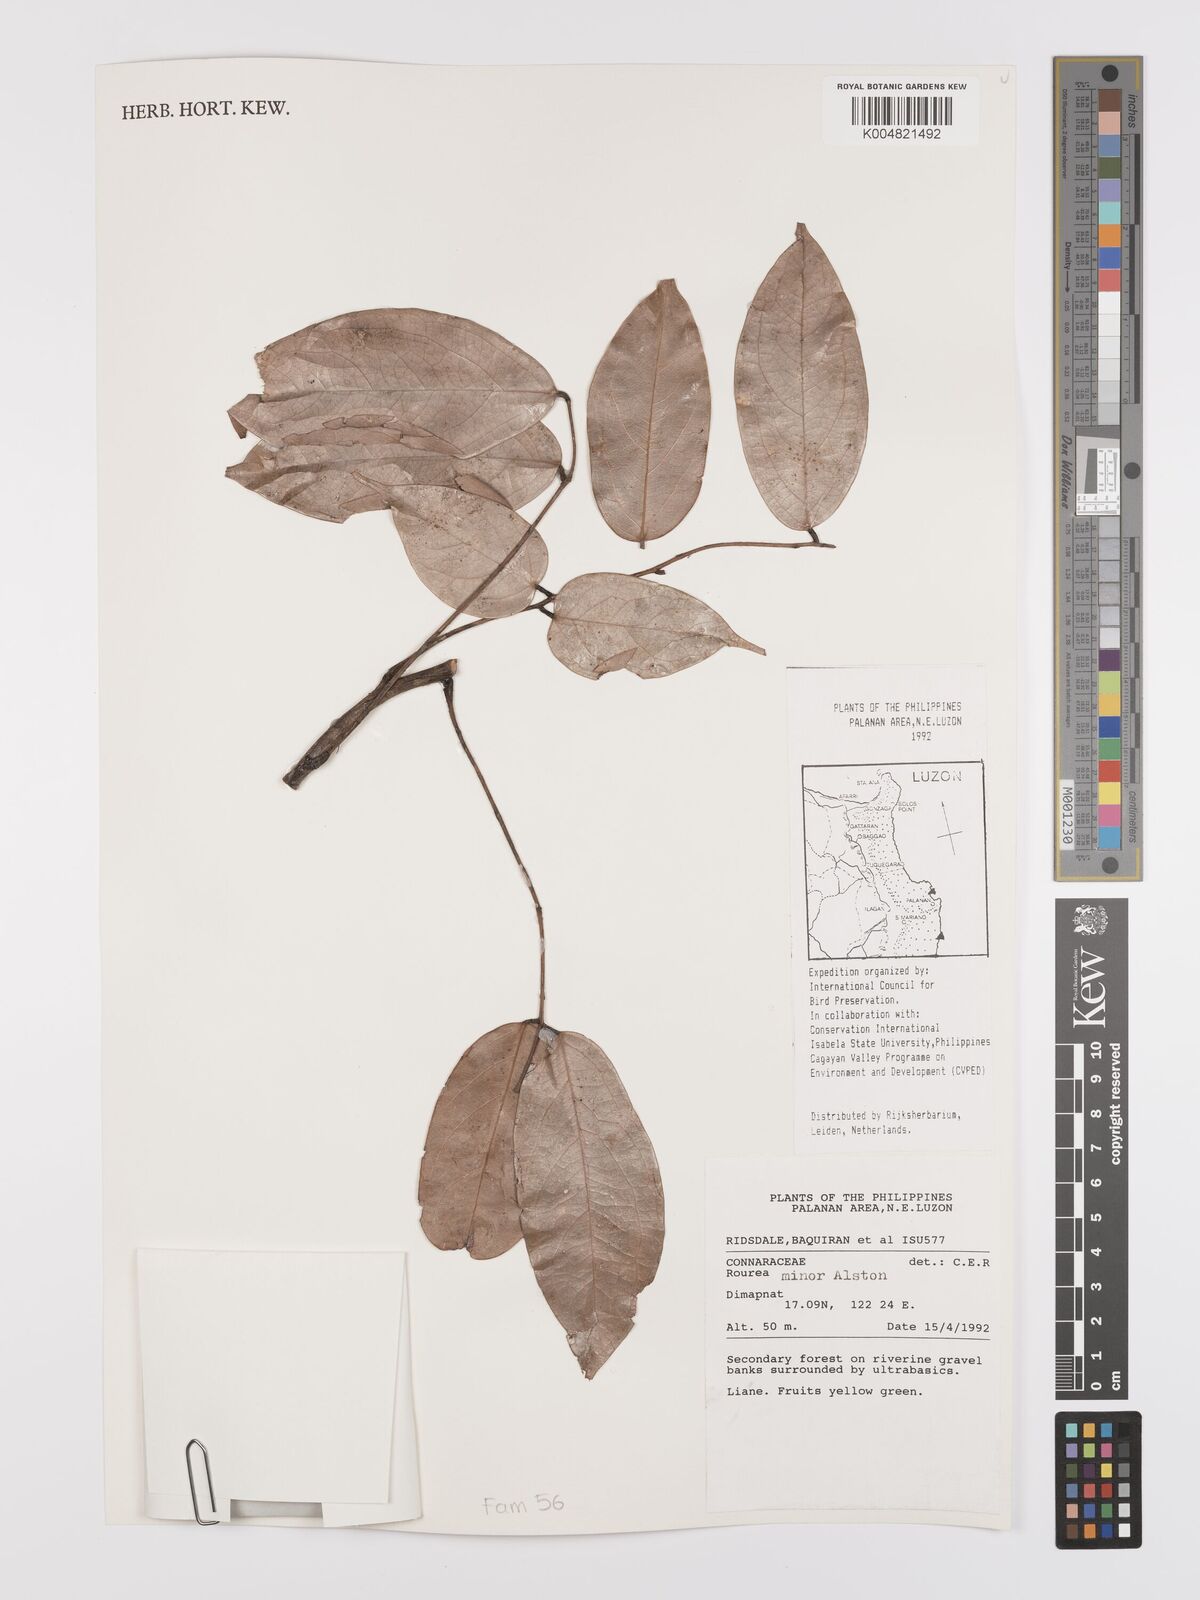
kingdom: Plantae
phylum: Tracheophyta
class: Magnoliopsida
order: Oxalidales
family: Connaraceae
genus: Rourea
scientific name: Rourea minor
